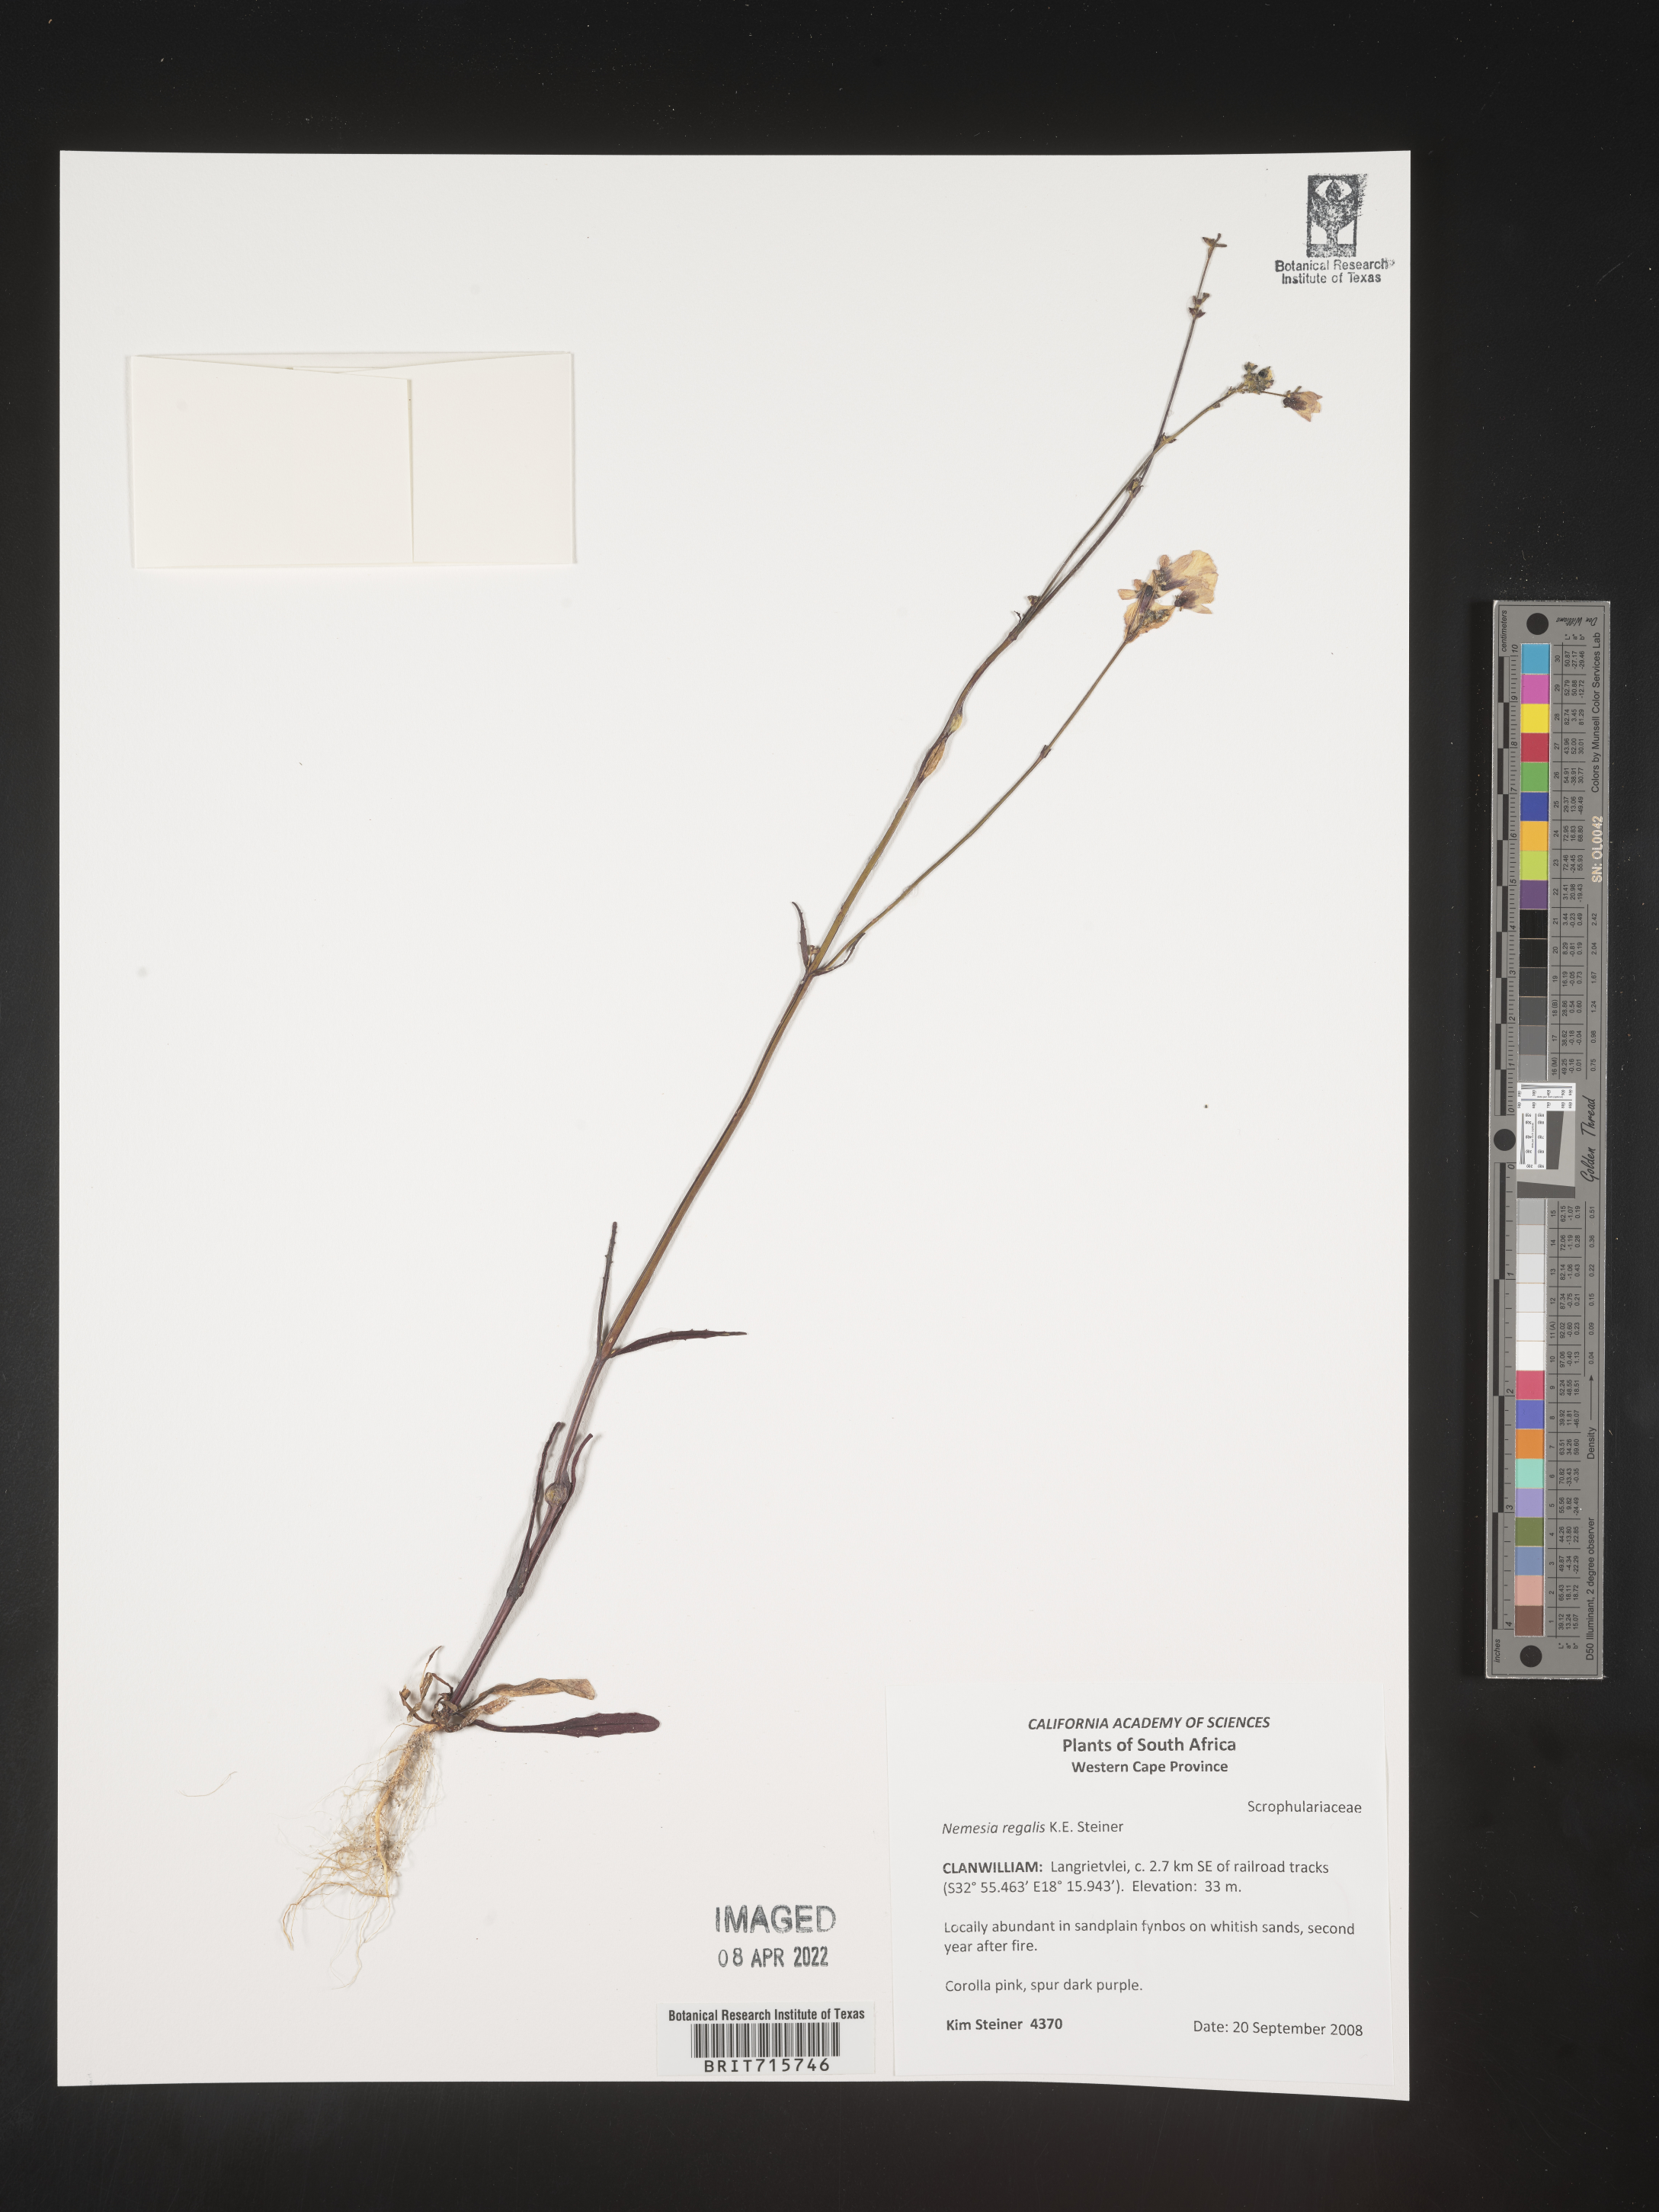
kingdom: Plantae
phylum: Tracheophyta
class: Magnoliopsida
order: Lamiales
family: Scrophulariaceae
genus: Nemesia
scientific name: Nemesia
